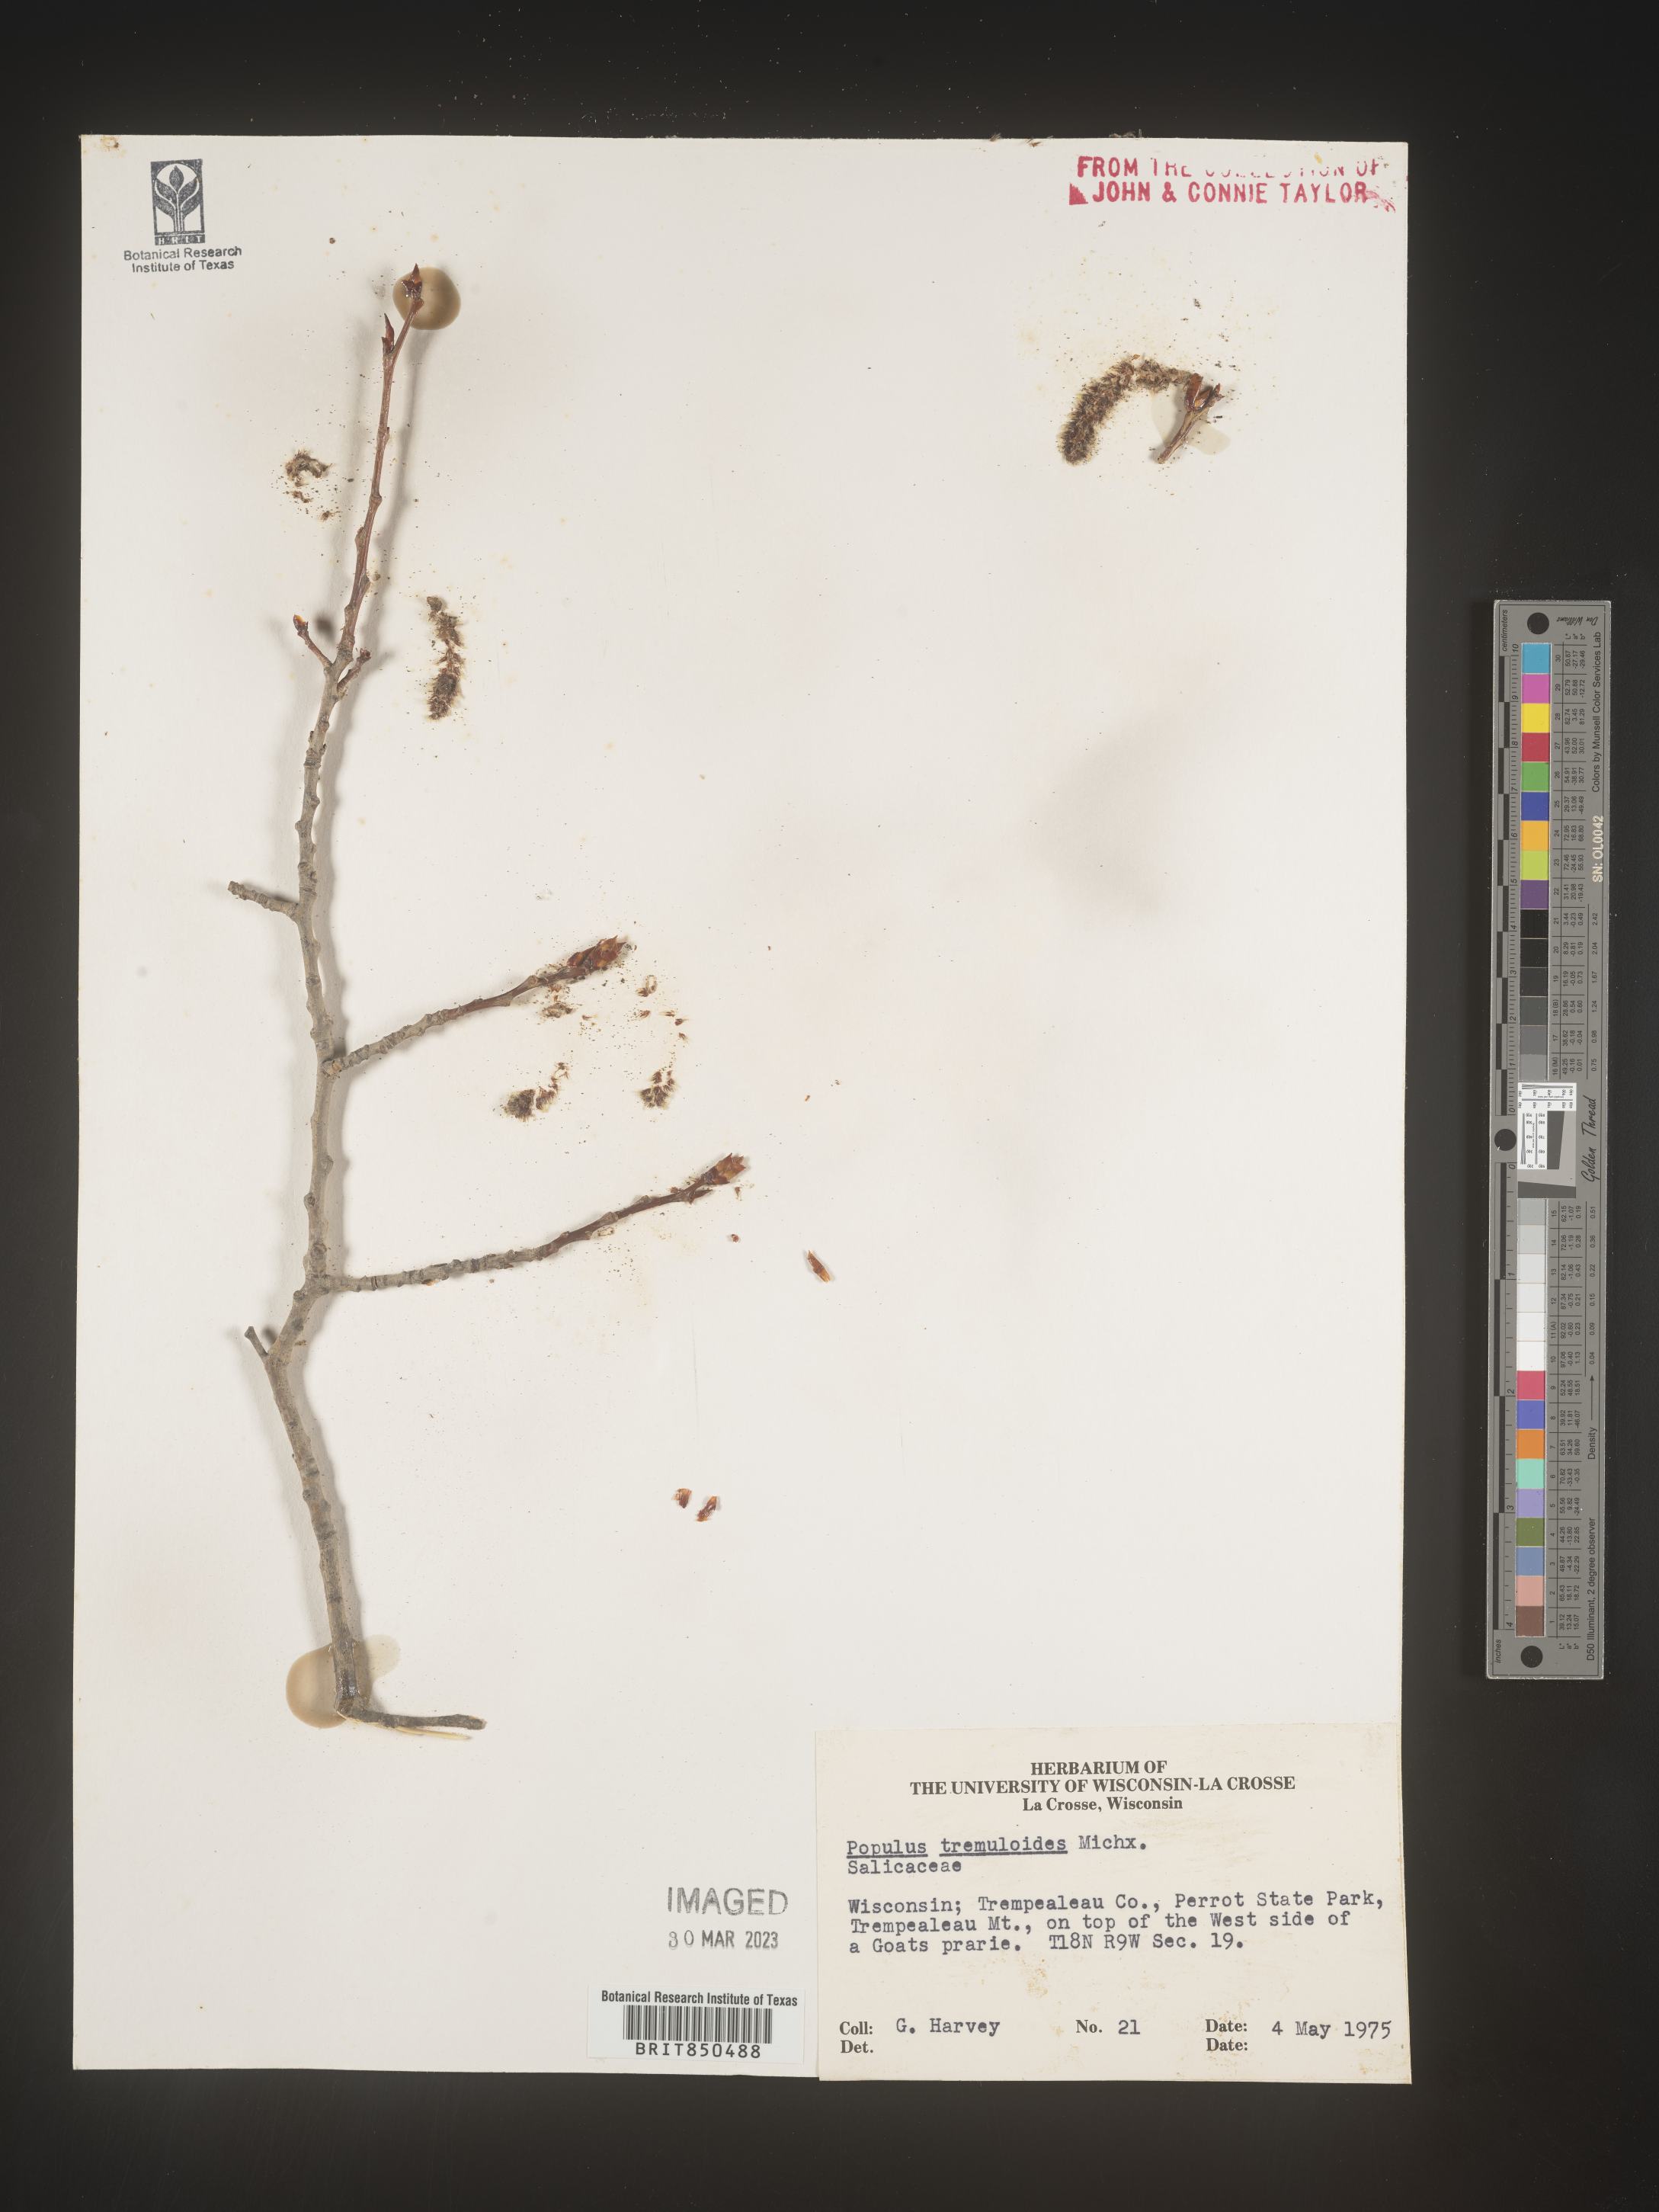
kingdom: Plantae
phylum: Tracheophyta
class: Magnoliopsida
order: Malpighiales
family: Salicaceae
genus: Populus
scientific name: Populus tremuloides
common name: Quaking aspen
